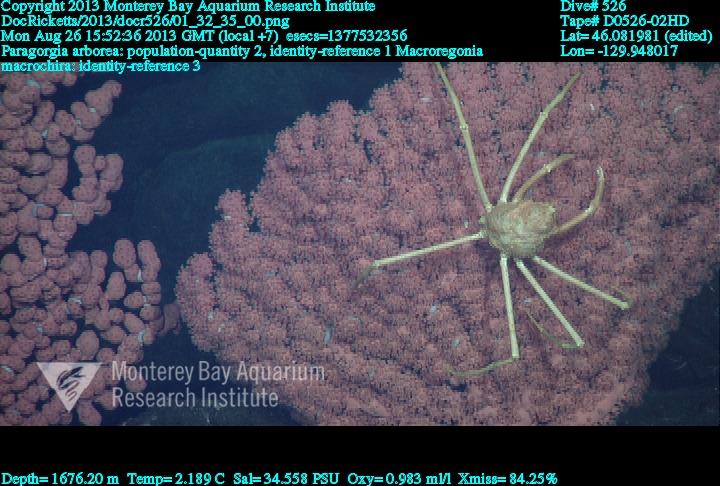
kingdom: Animalia
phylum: Cnidaria
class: Anthozoa
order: Scleralcyonacea
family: Coralliidae
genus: Paragorgia
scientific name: Paragorgia arborea
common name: Bubble gum coral
